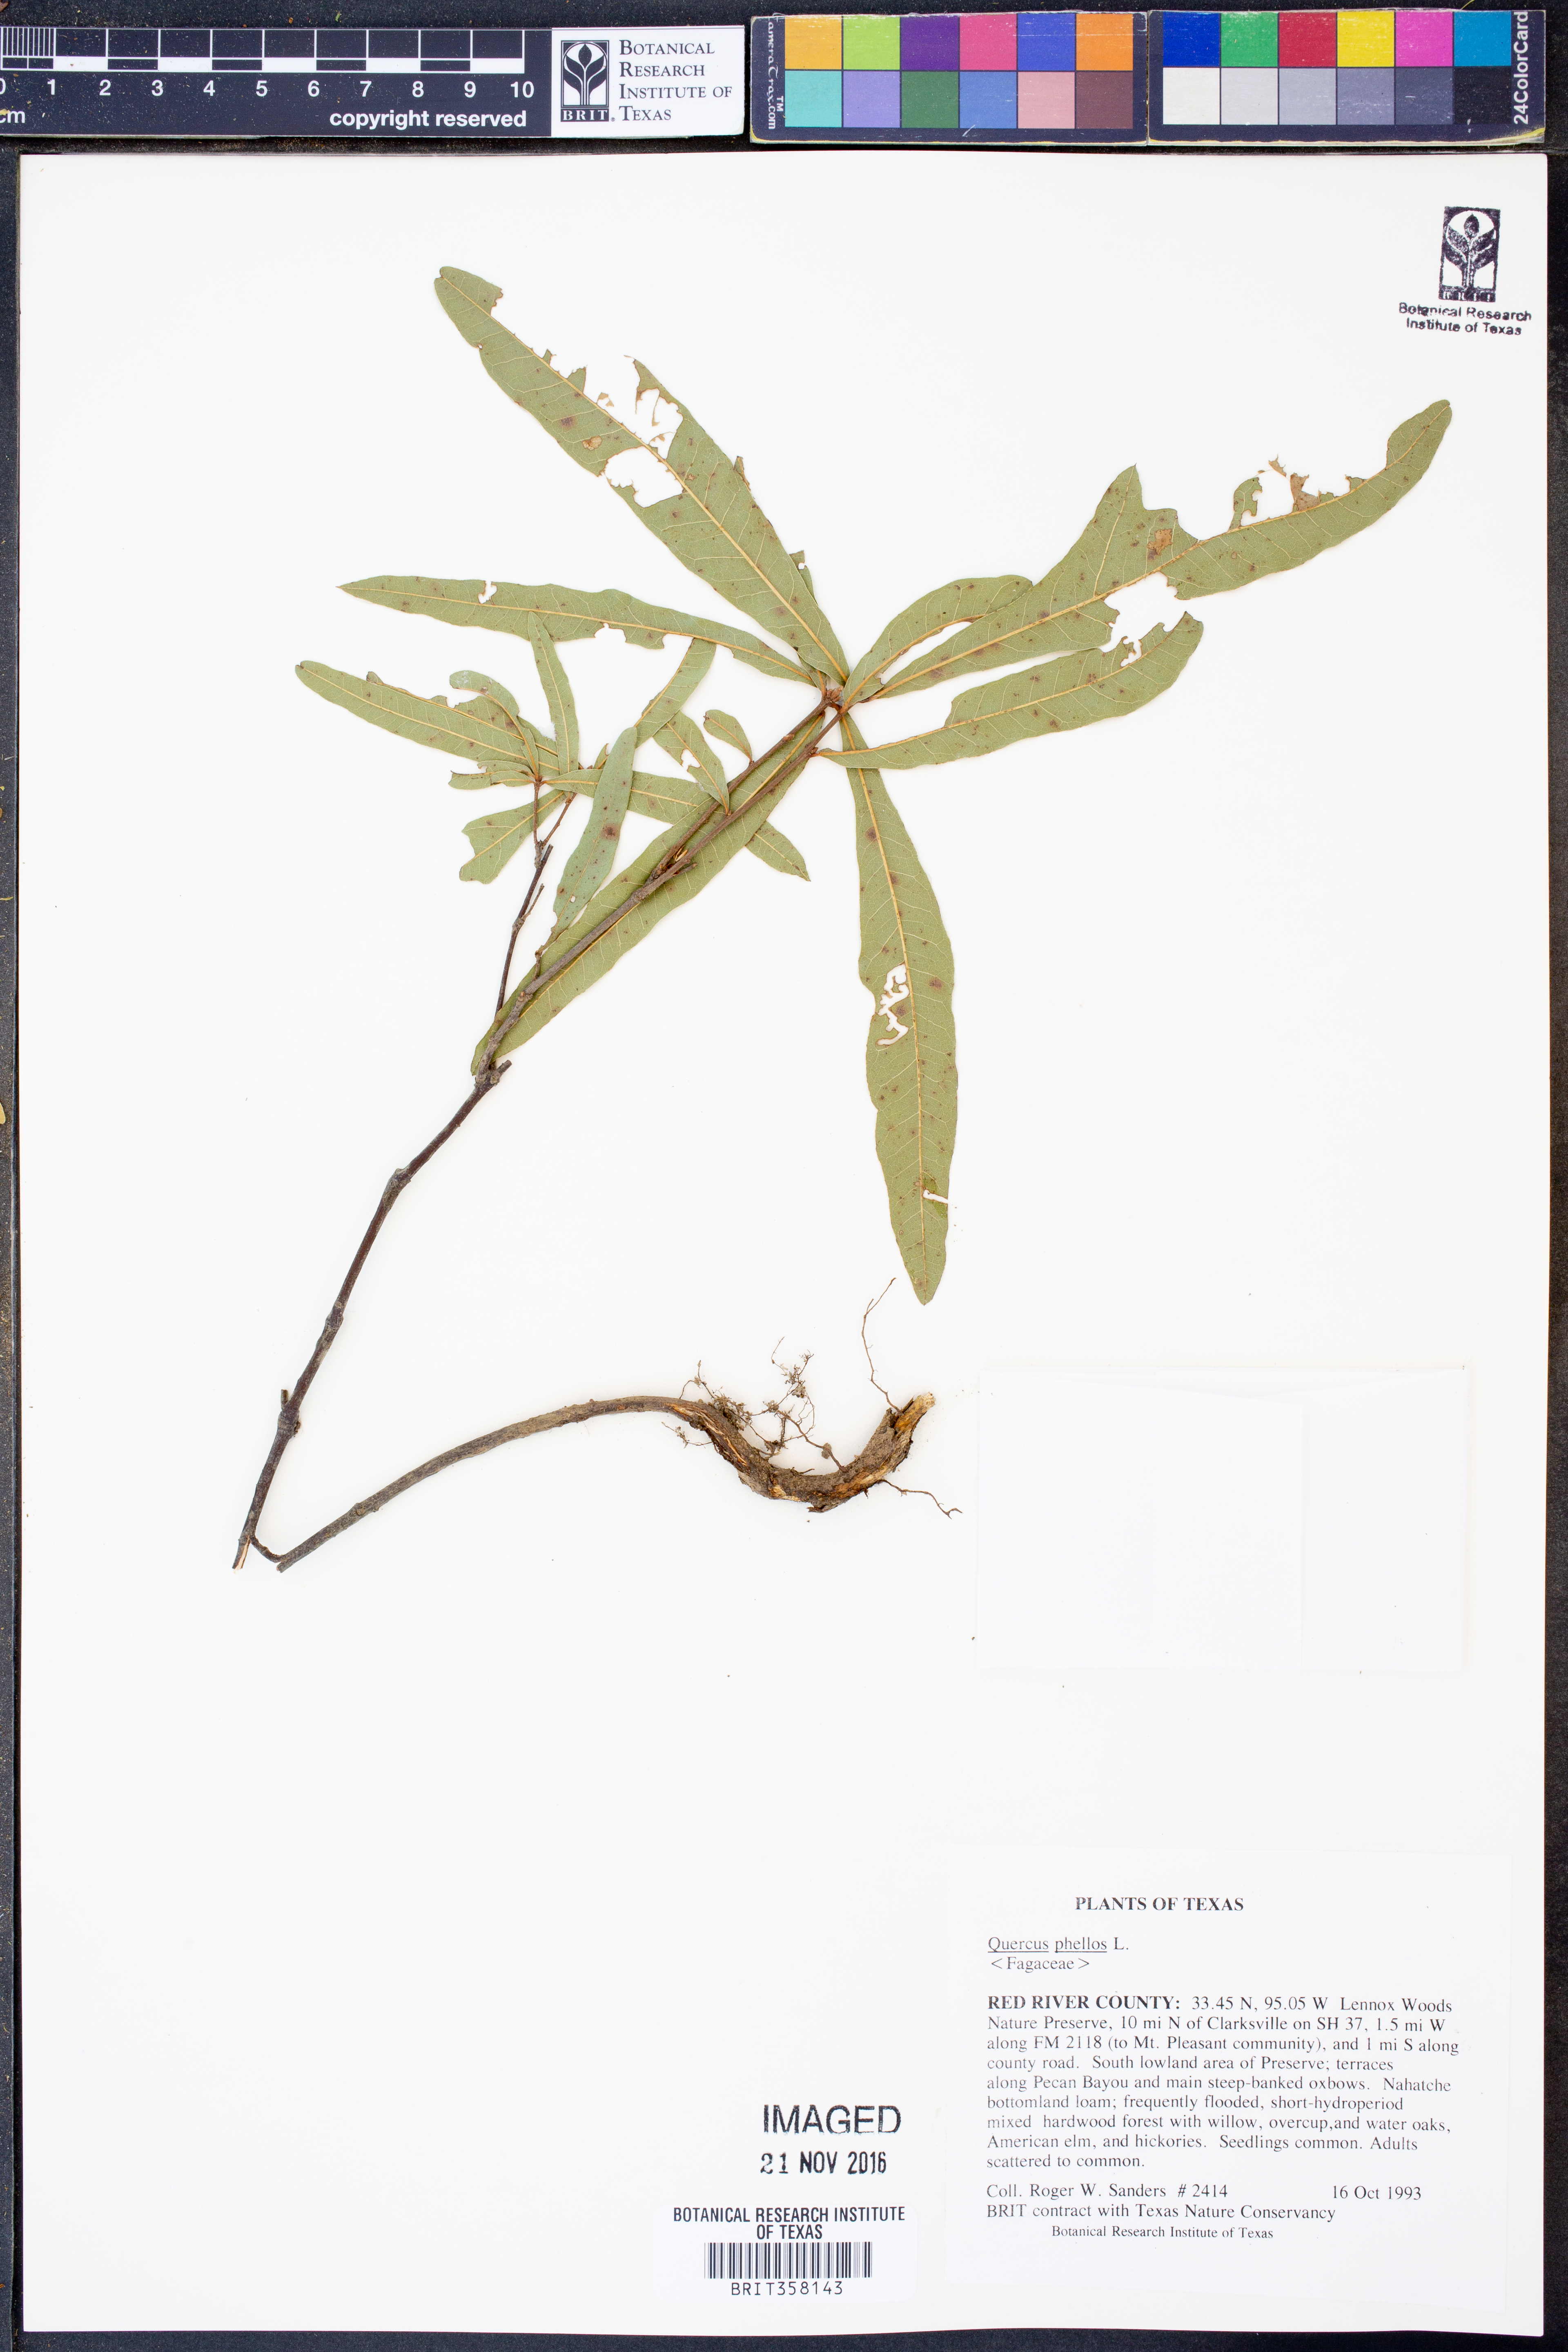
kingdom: Plantae
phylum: Tracheophyta
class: Magnoliopsida
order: Fagales
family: Fagaceae
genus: Quercus
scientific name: Quercus phellos
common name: Willow oak
